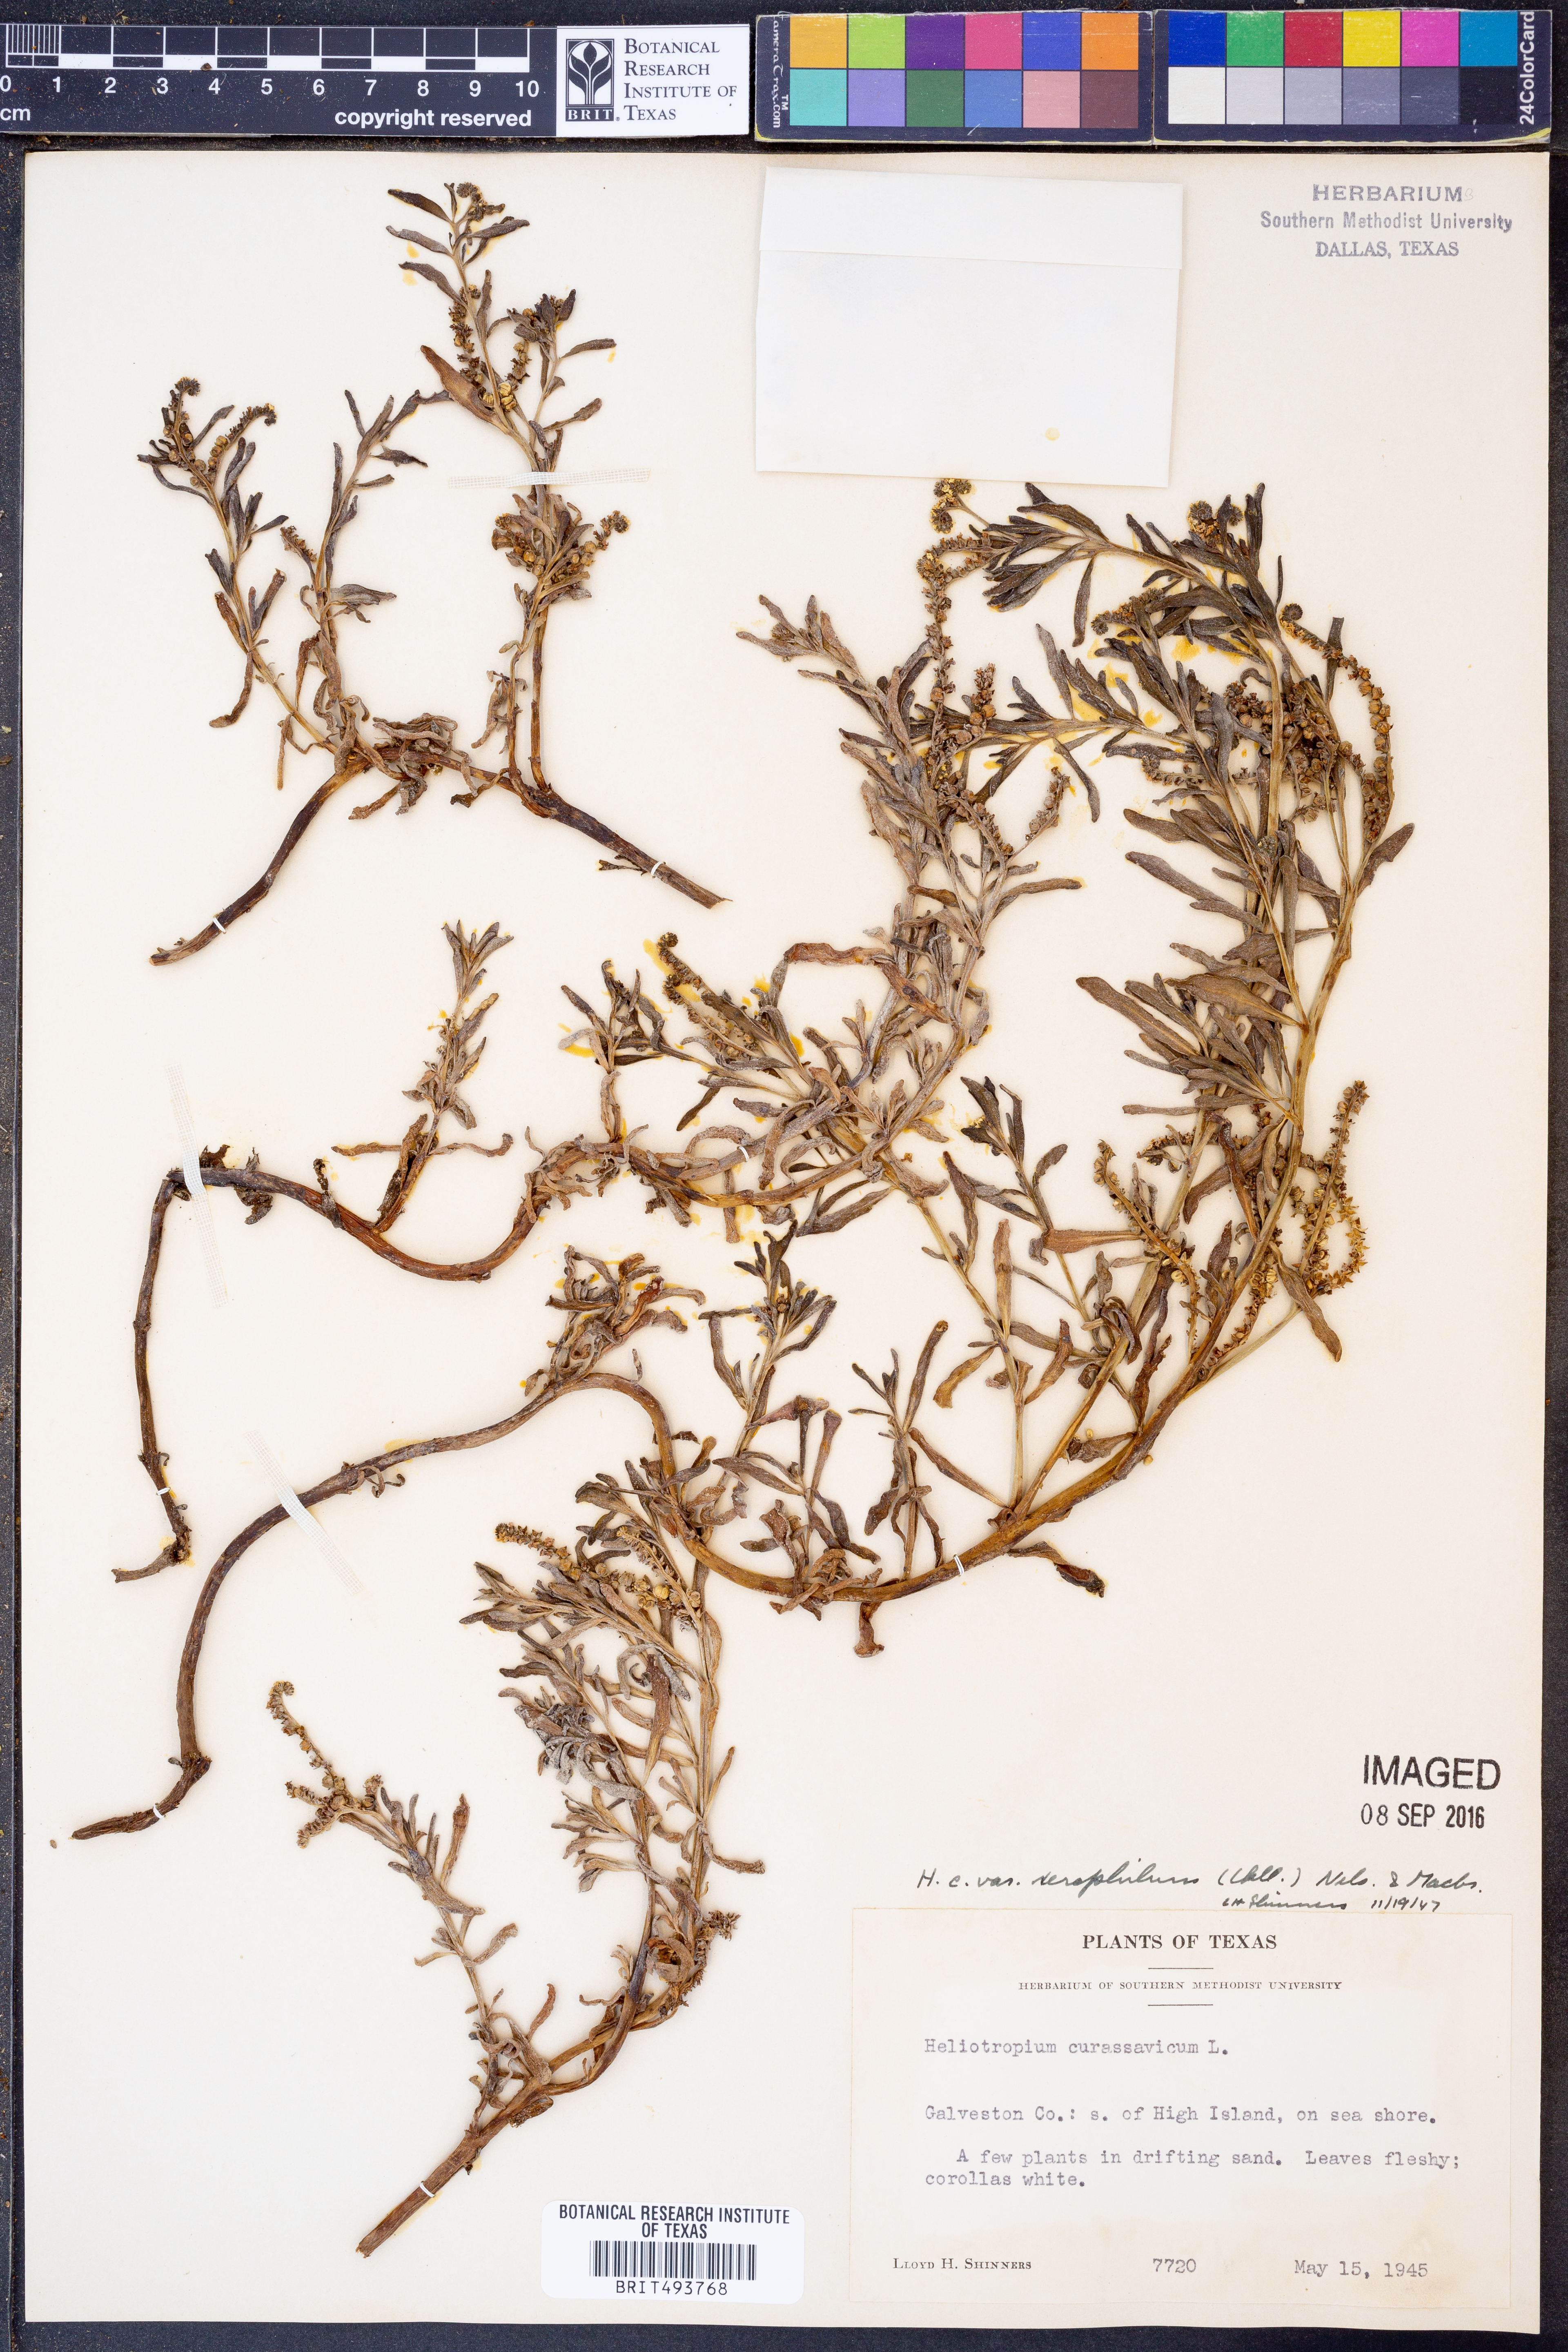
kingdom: Plantae
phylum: Tracheophyta
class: Magnoliopsida
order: Boraginales
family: Heliotropiaceae
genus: Heliotropium
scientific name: Heliotropium curassavicum
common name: Seaside heliotrope
